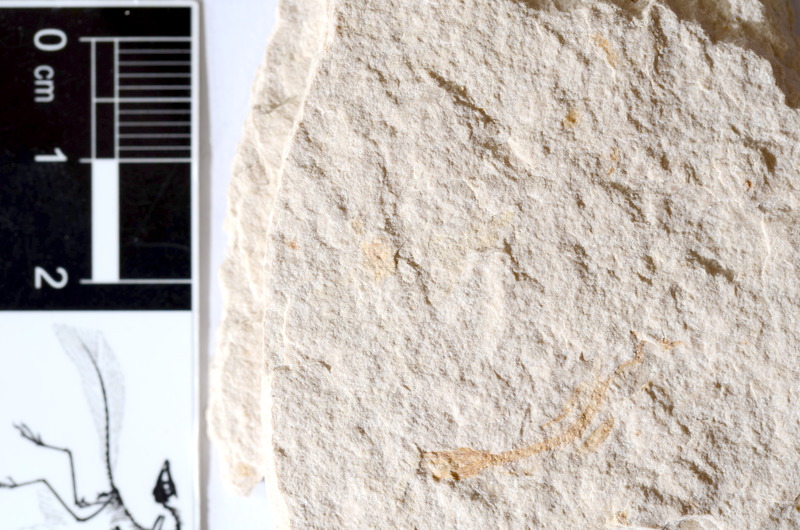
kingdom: Animalia
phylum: Chordata
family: Ascalaboidae
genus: Tharsis
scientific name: Tharsis dubius
